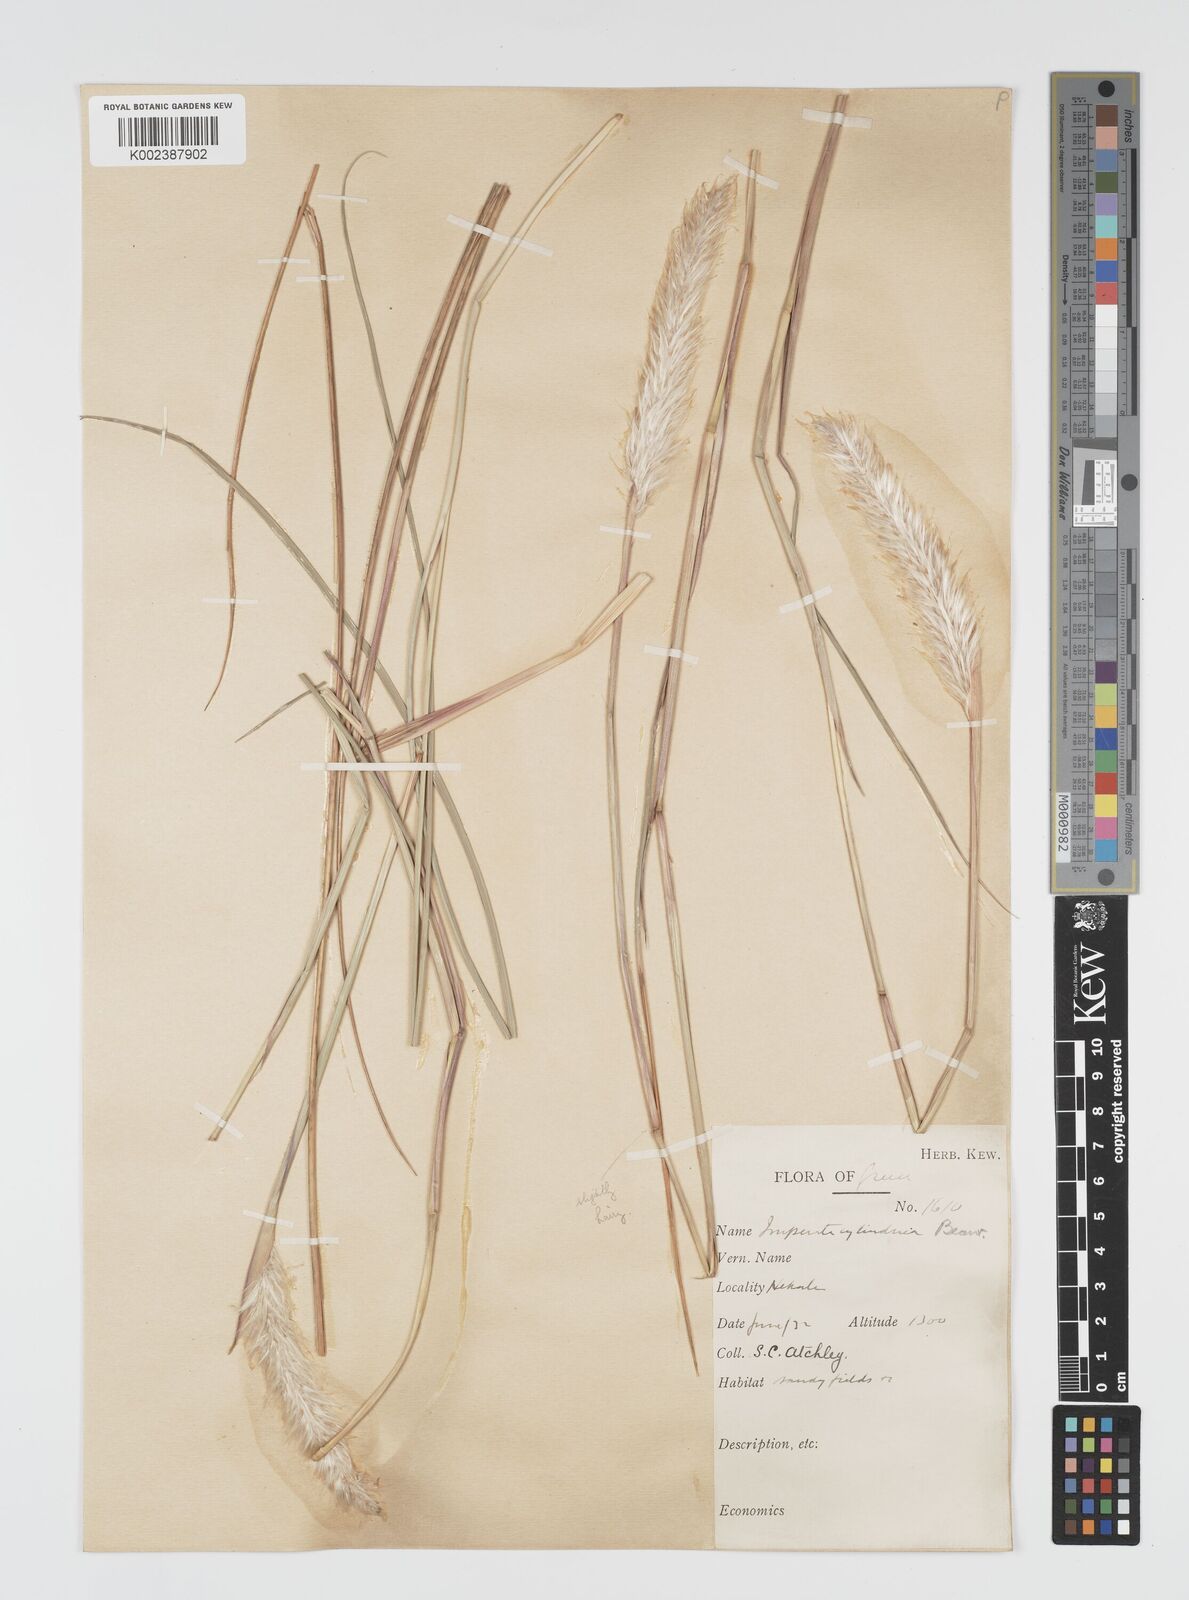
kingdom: Plantae
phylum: Tracheophyta
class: Liliopsida
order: Poales
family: Poaceae
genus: Imperata
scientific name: Imperata cylindrica
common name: Cogongrass
